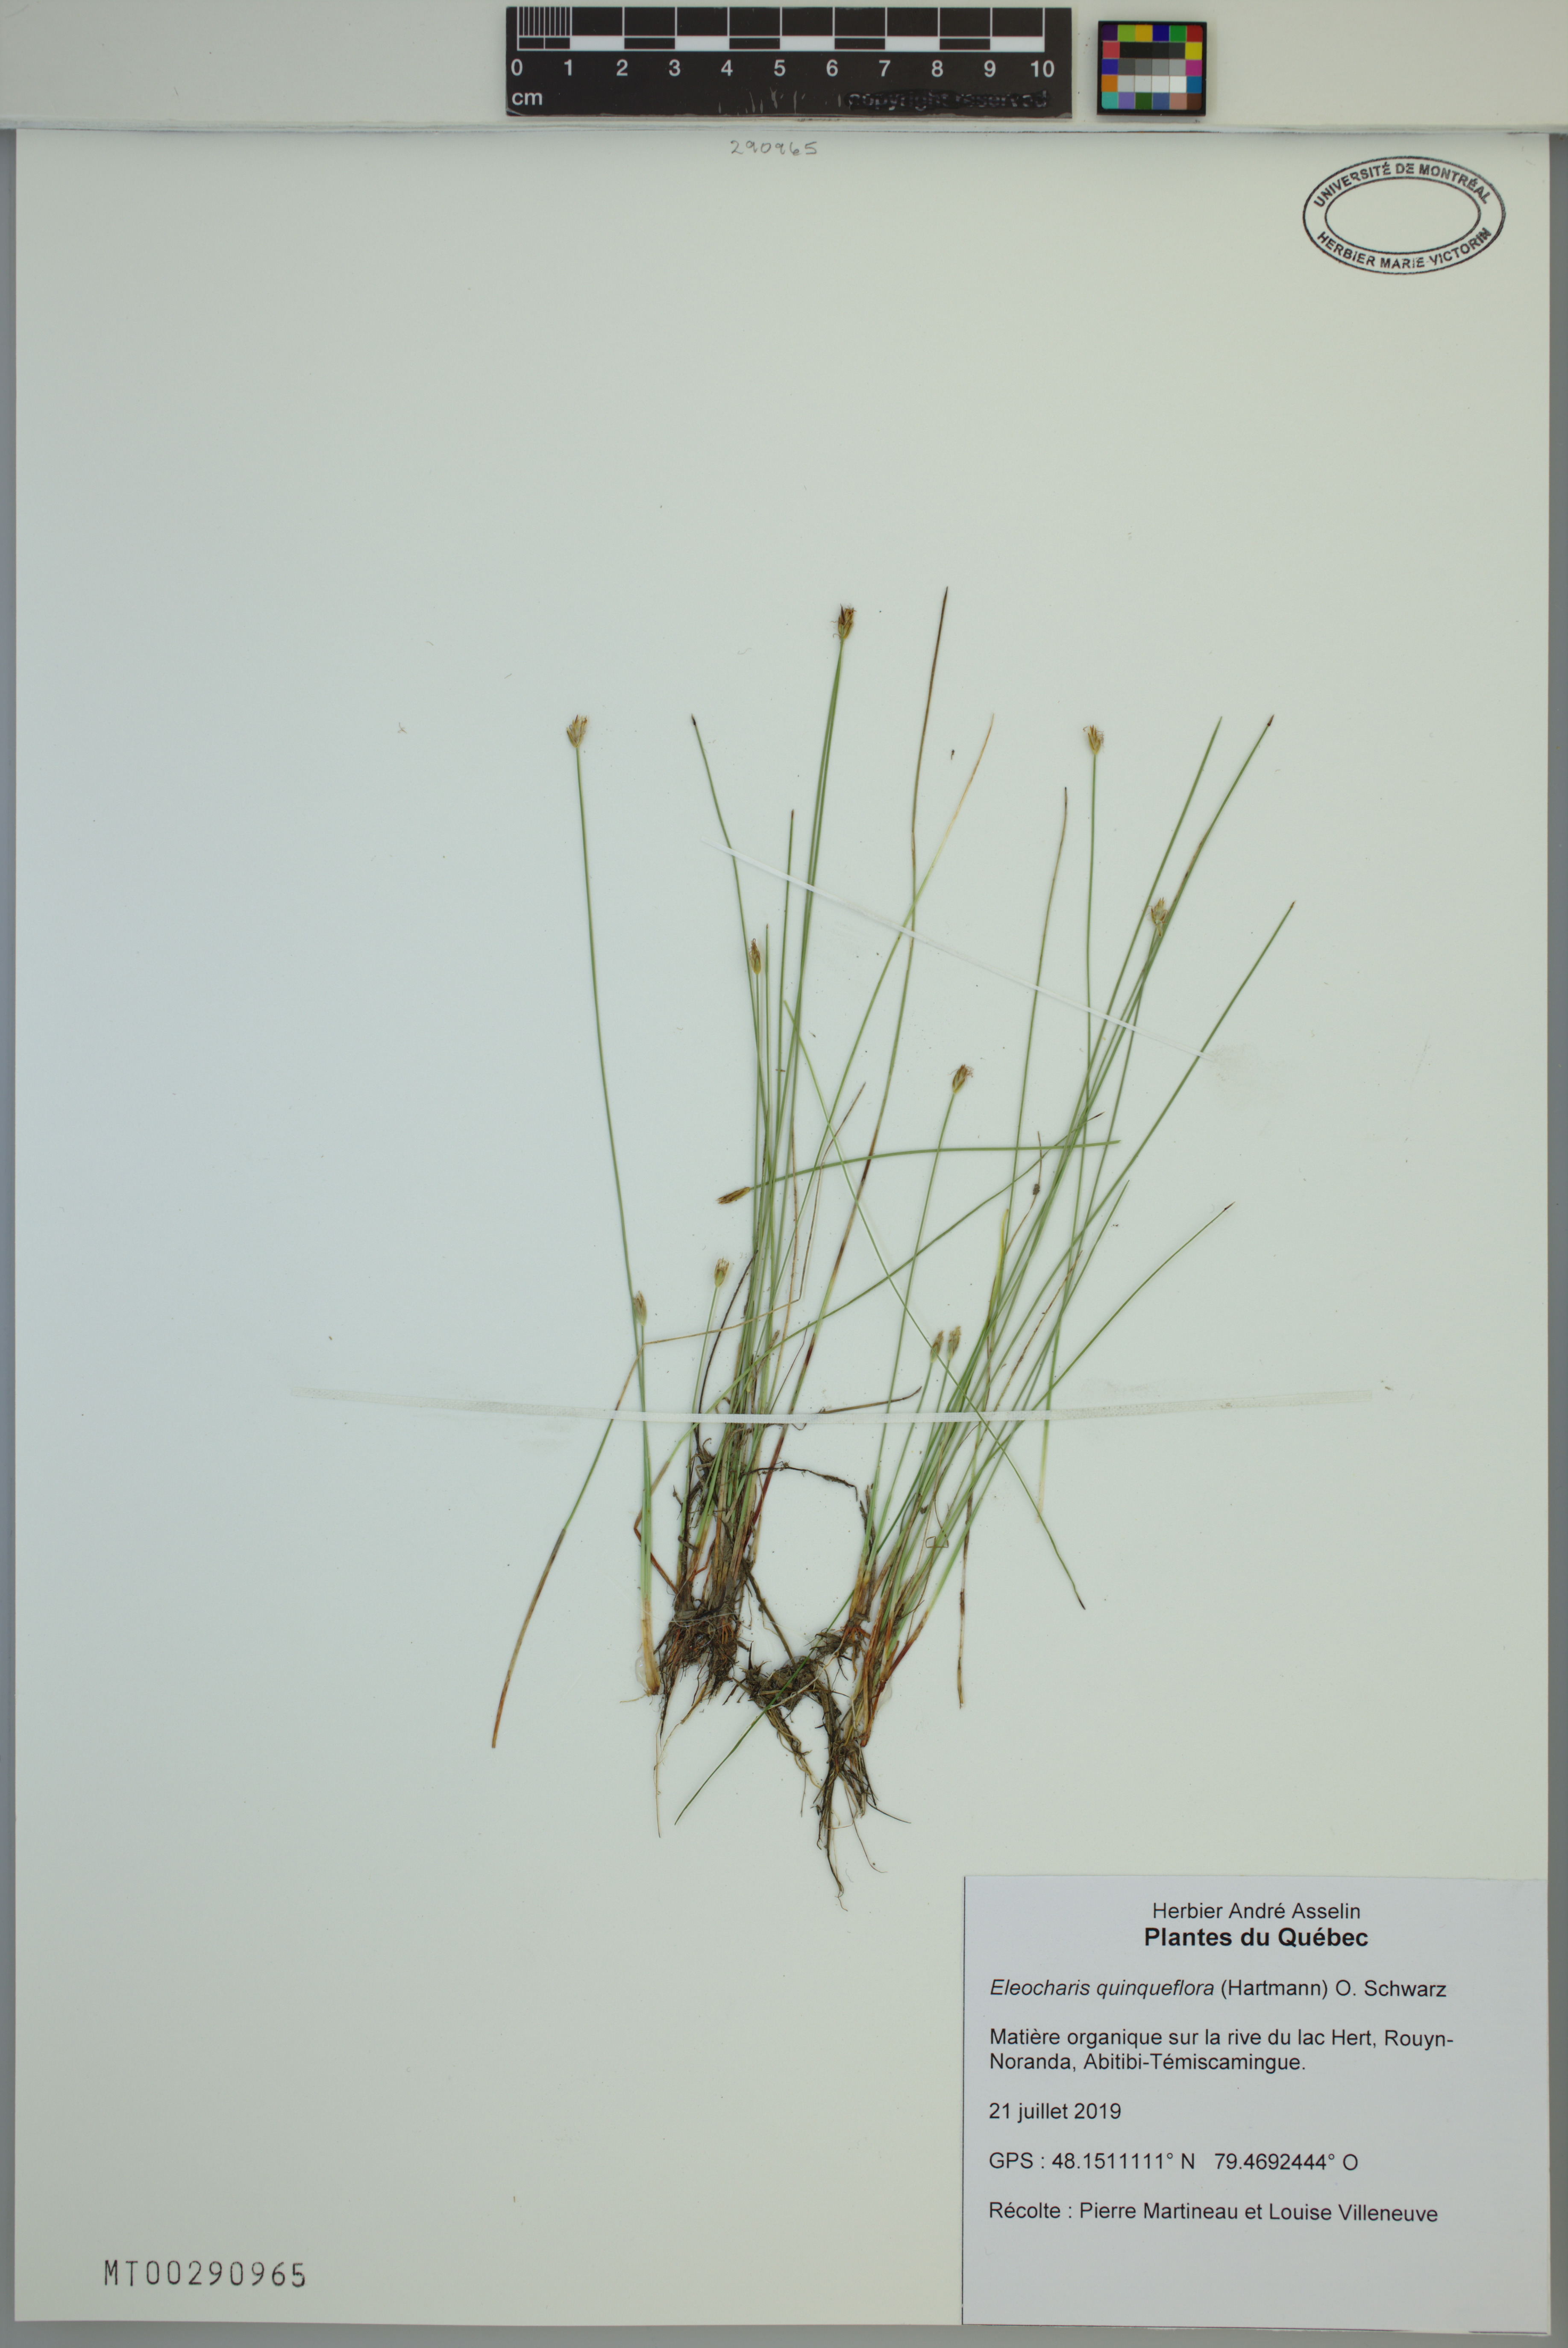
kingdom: Plantae
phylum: Tracheophyta
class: Liliopsida
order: Poales
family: Cyperaceae
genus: Eleocharis
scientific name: Eleocharis quinqueflora
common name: Few-flowered spike-rush
